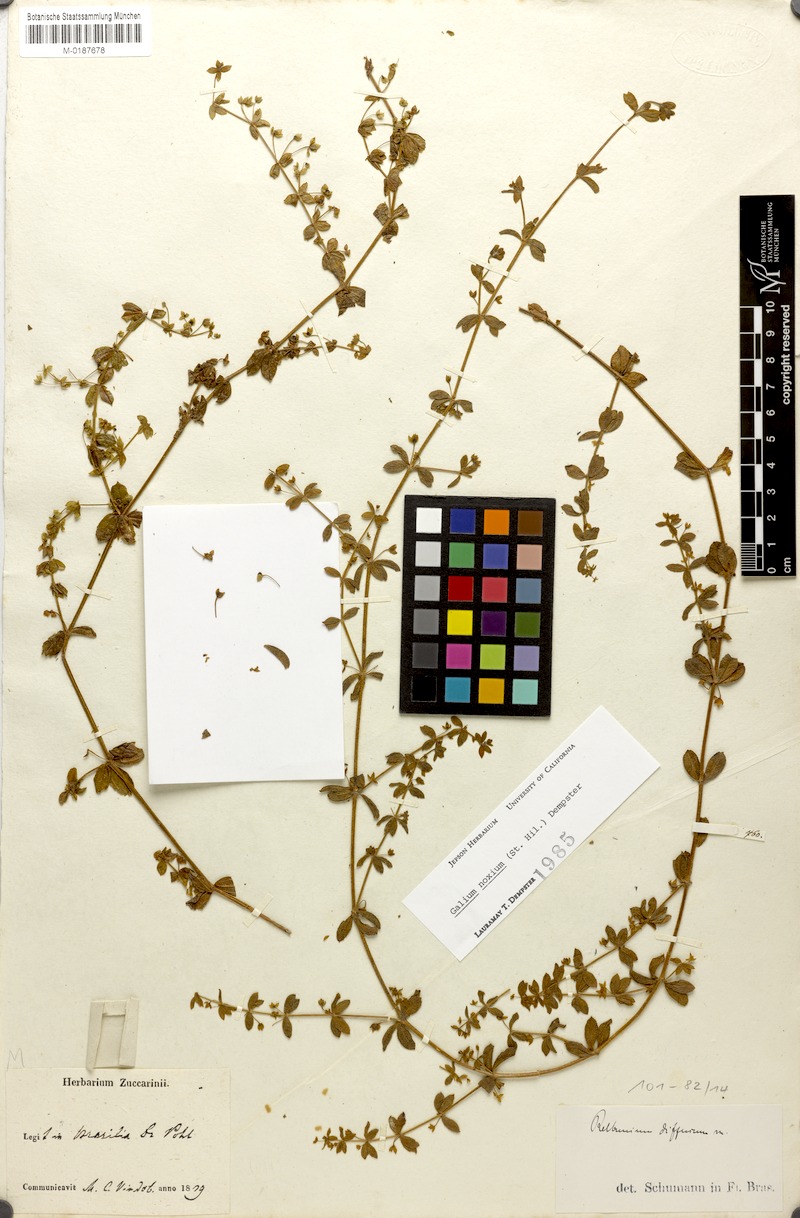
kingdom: Plantae
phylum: Tracheophyta
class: Magnoliopsida
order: Gentianales
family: Rubiaceae
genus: Galium
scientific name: Galium noxium
